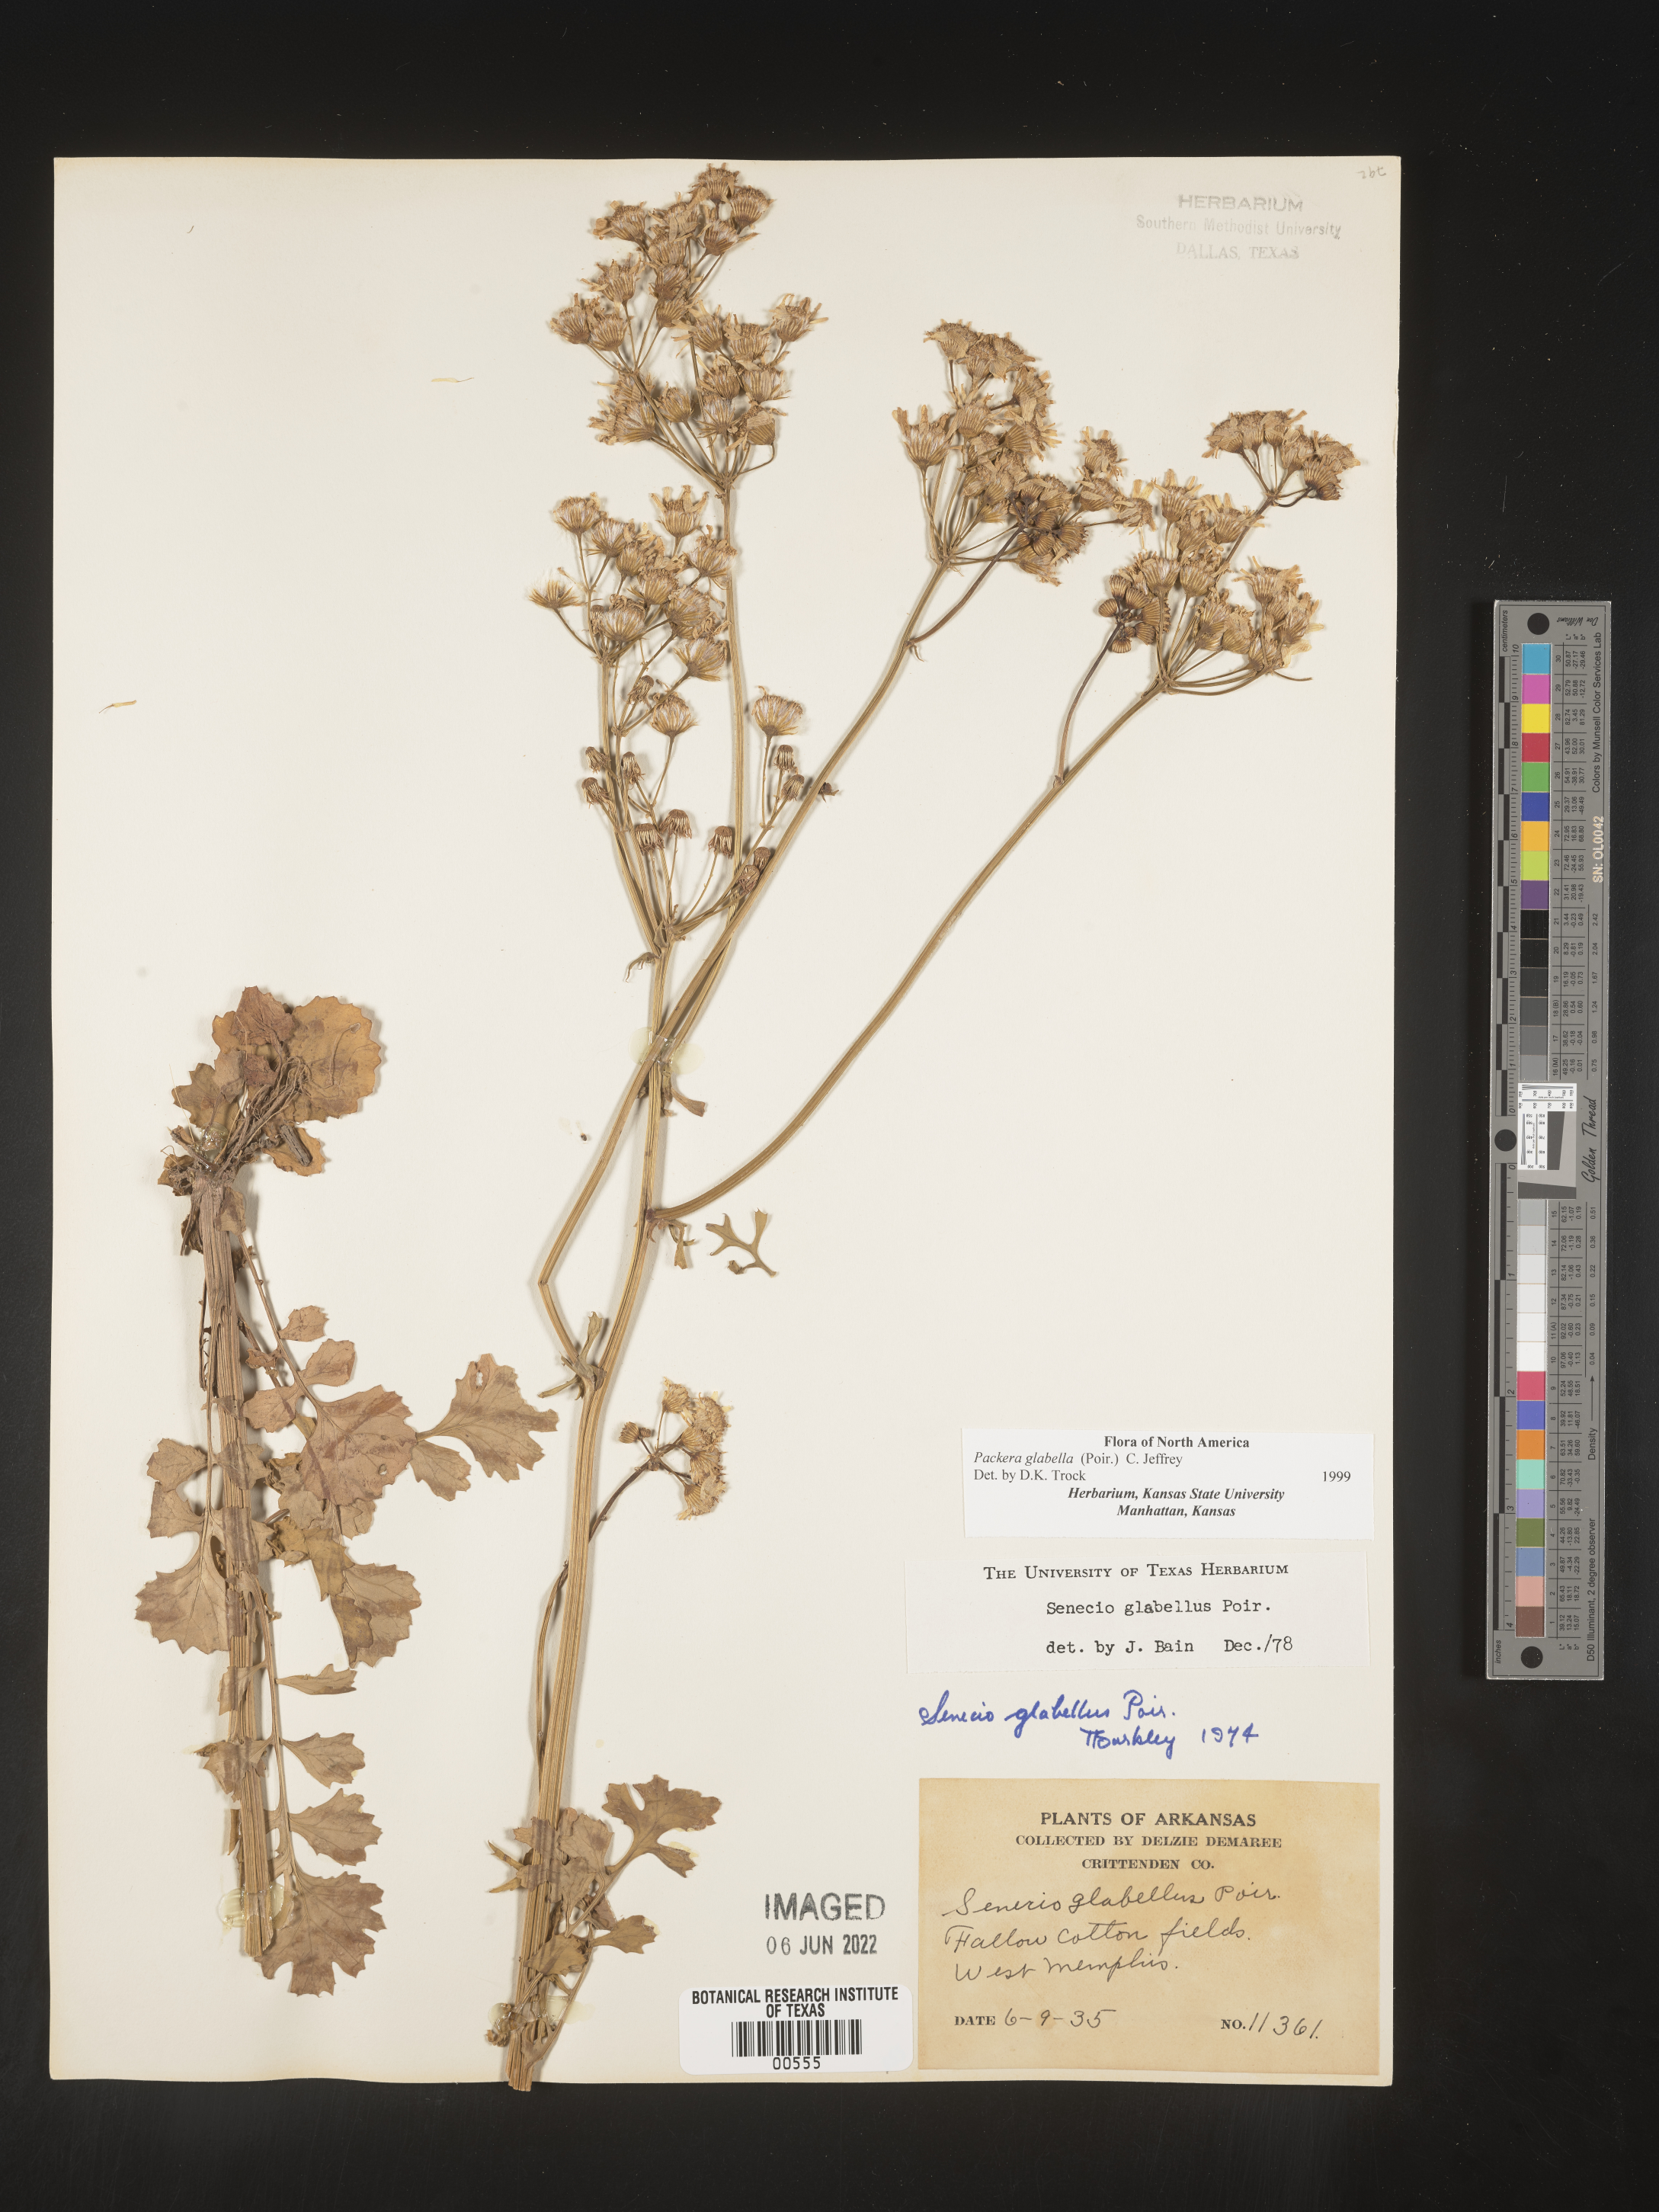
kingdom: Plantae
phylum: Tracheophyta
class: Magnoliopsida
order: Asterales
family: Asteraceae
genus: Packera
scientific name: Packera glabella
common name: Butterweed
